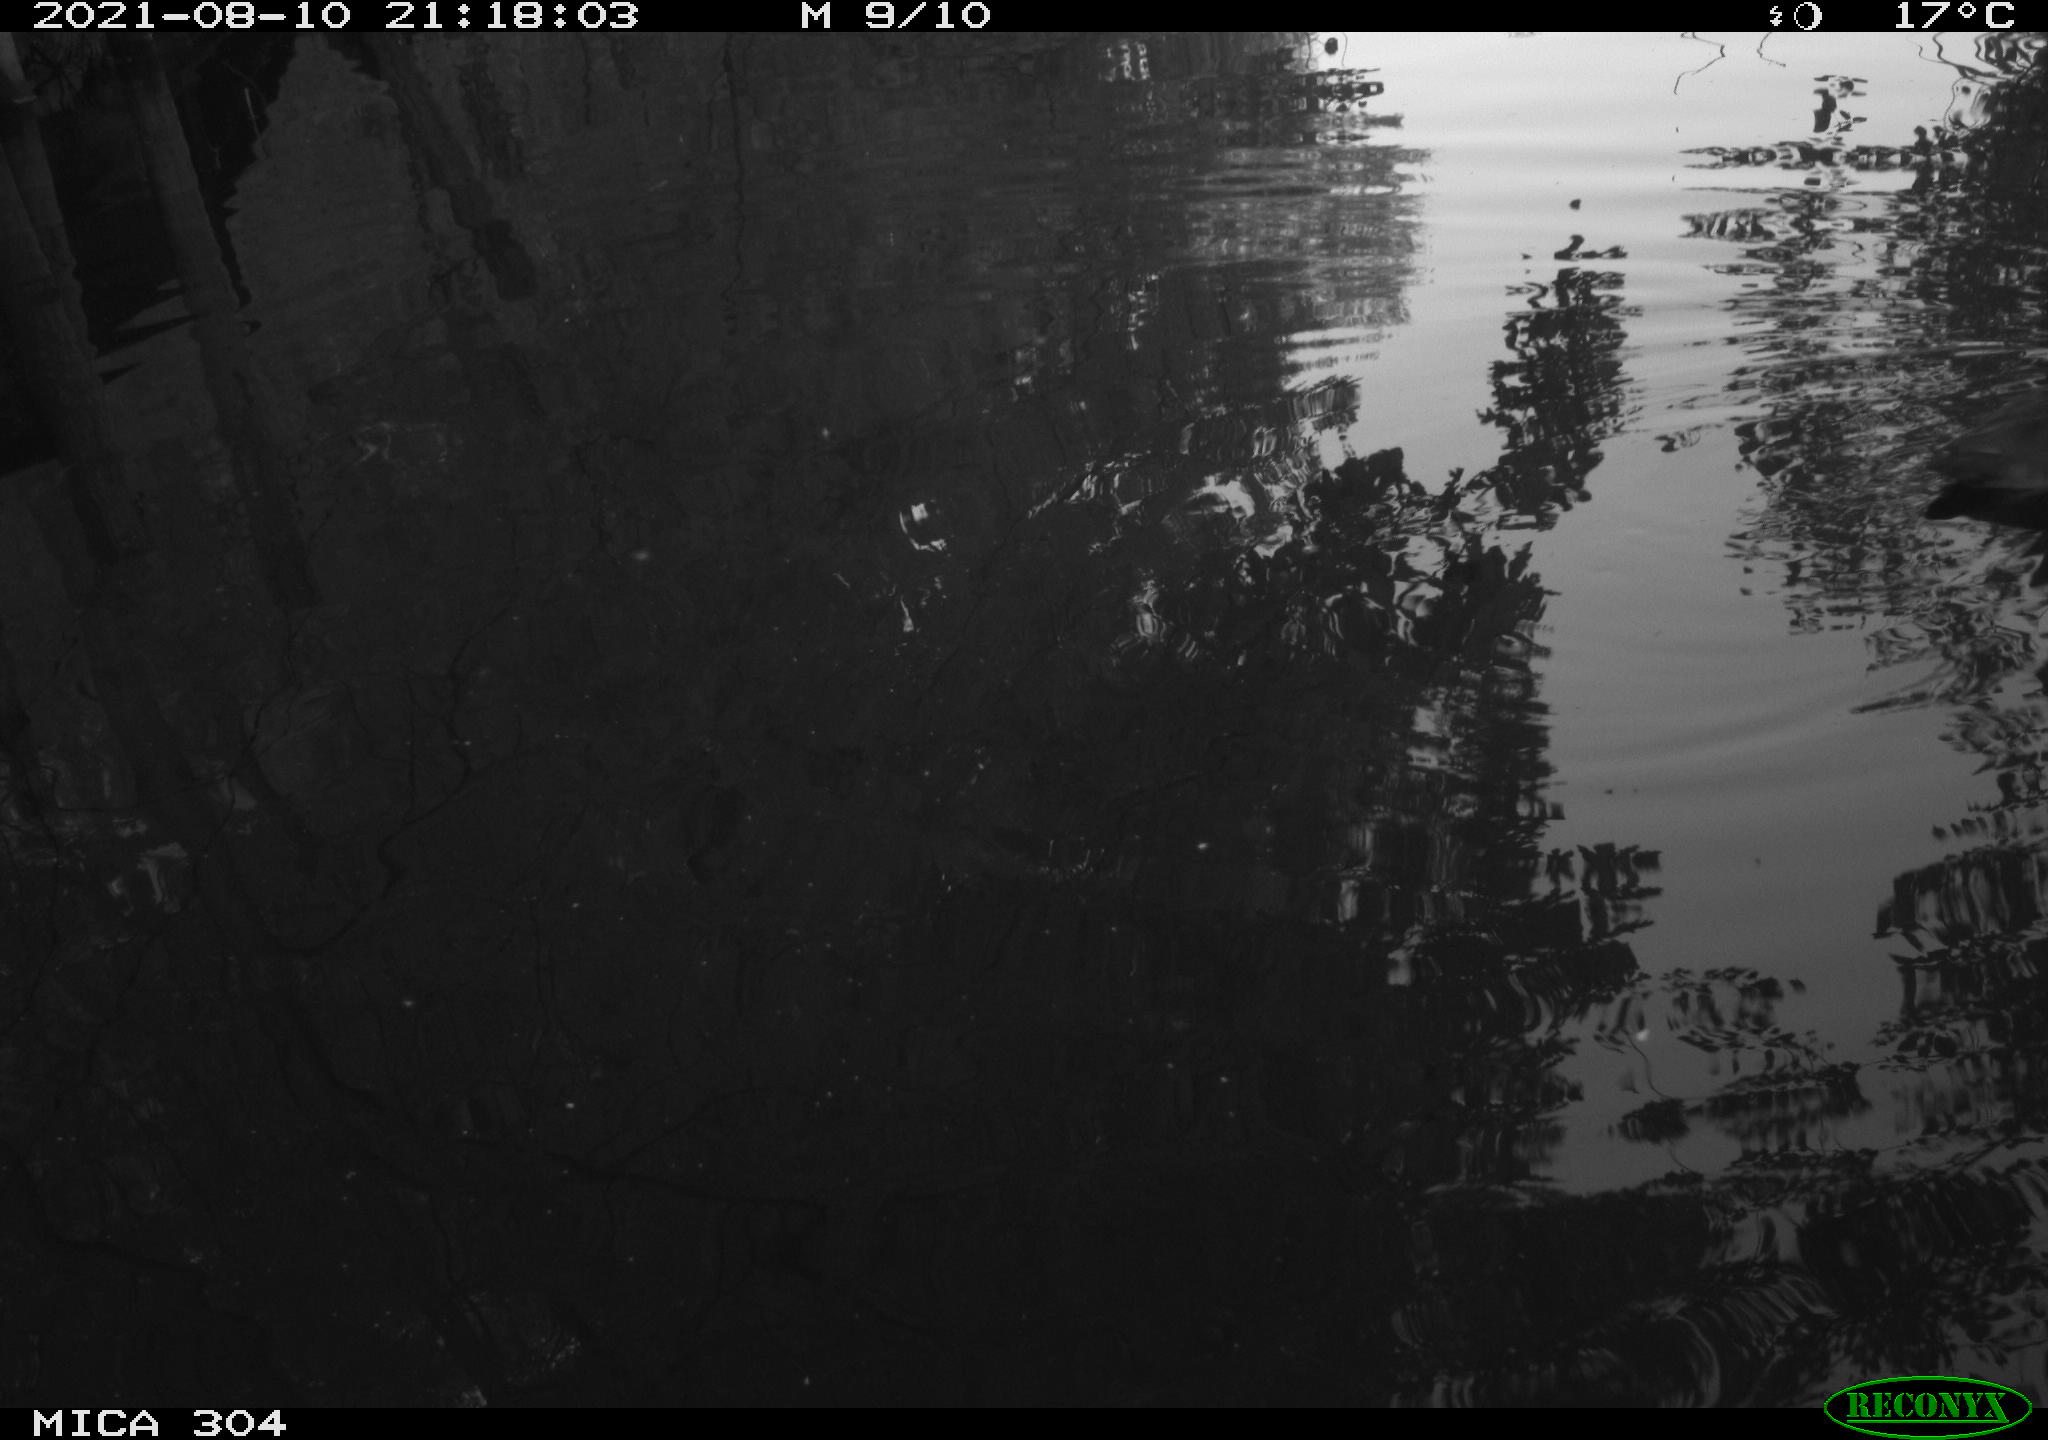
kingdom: Animalia
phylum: Chordata
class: Aves
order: Gruiformes
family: Rallidae
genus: Fulica
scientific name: Fulica atra
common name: Eurasian coot
